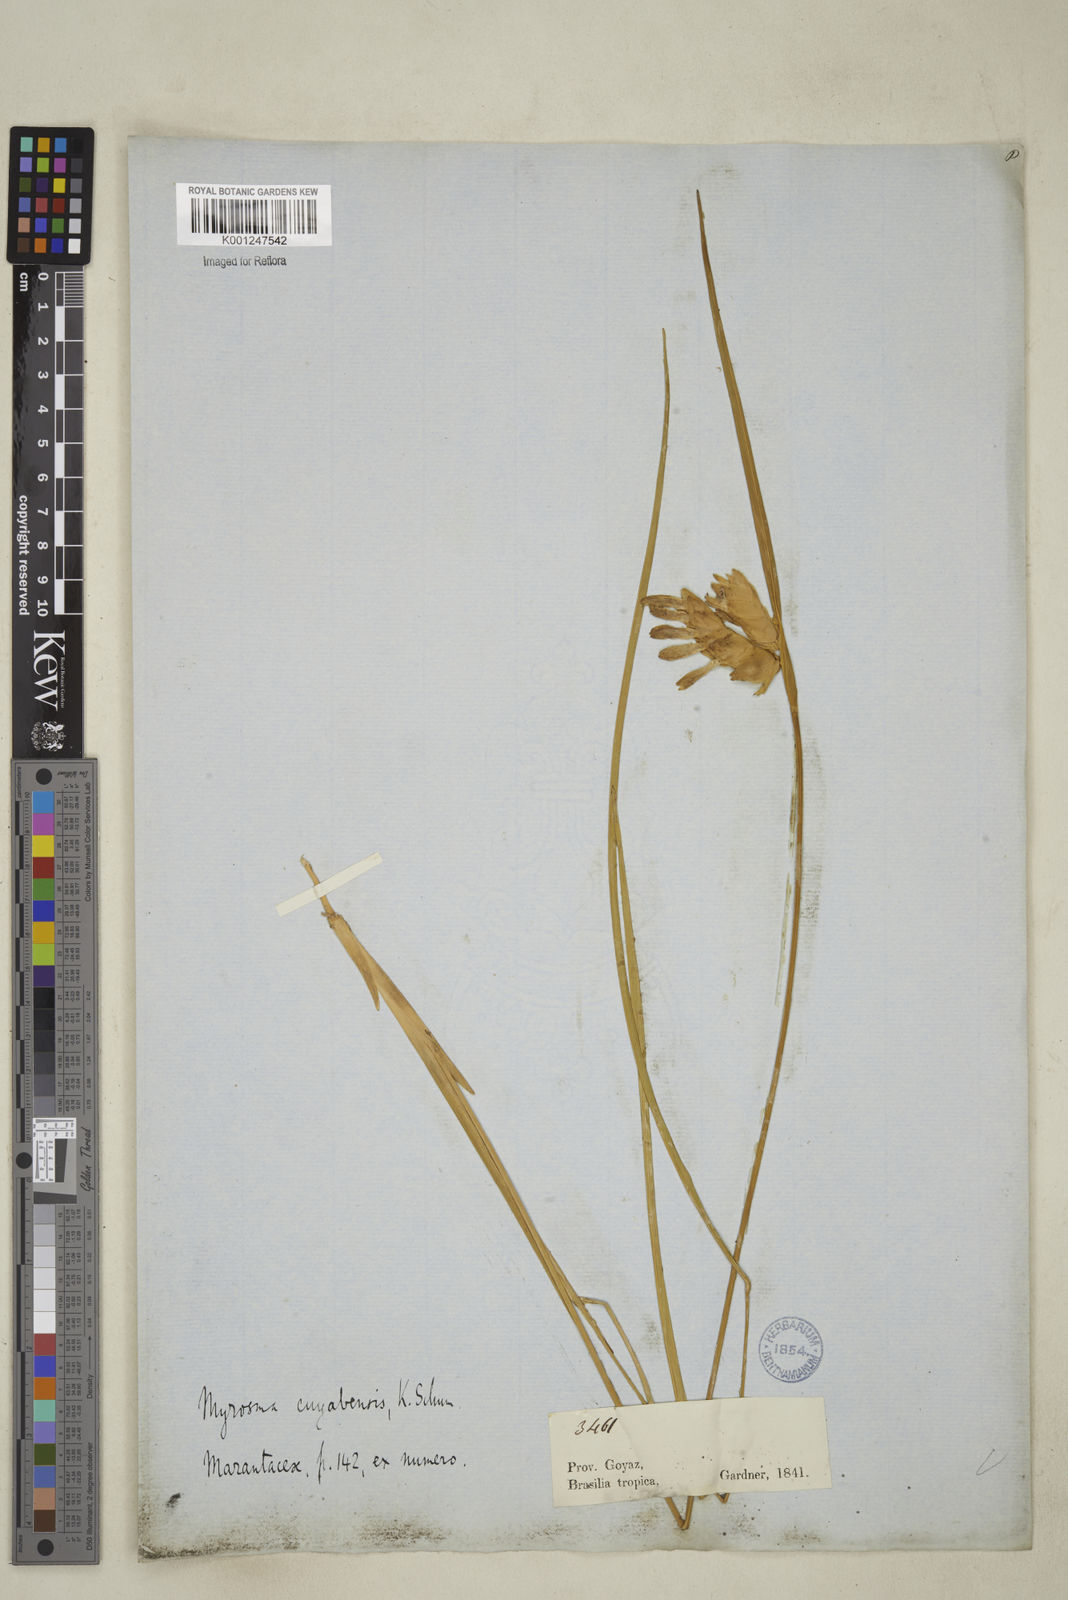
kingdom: Plantae
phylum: Tracheophyta
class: Liliopsida
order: Zingiberales
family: Marantaceae
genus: Myrosma
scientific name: Myrosma cannifolia
